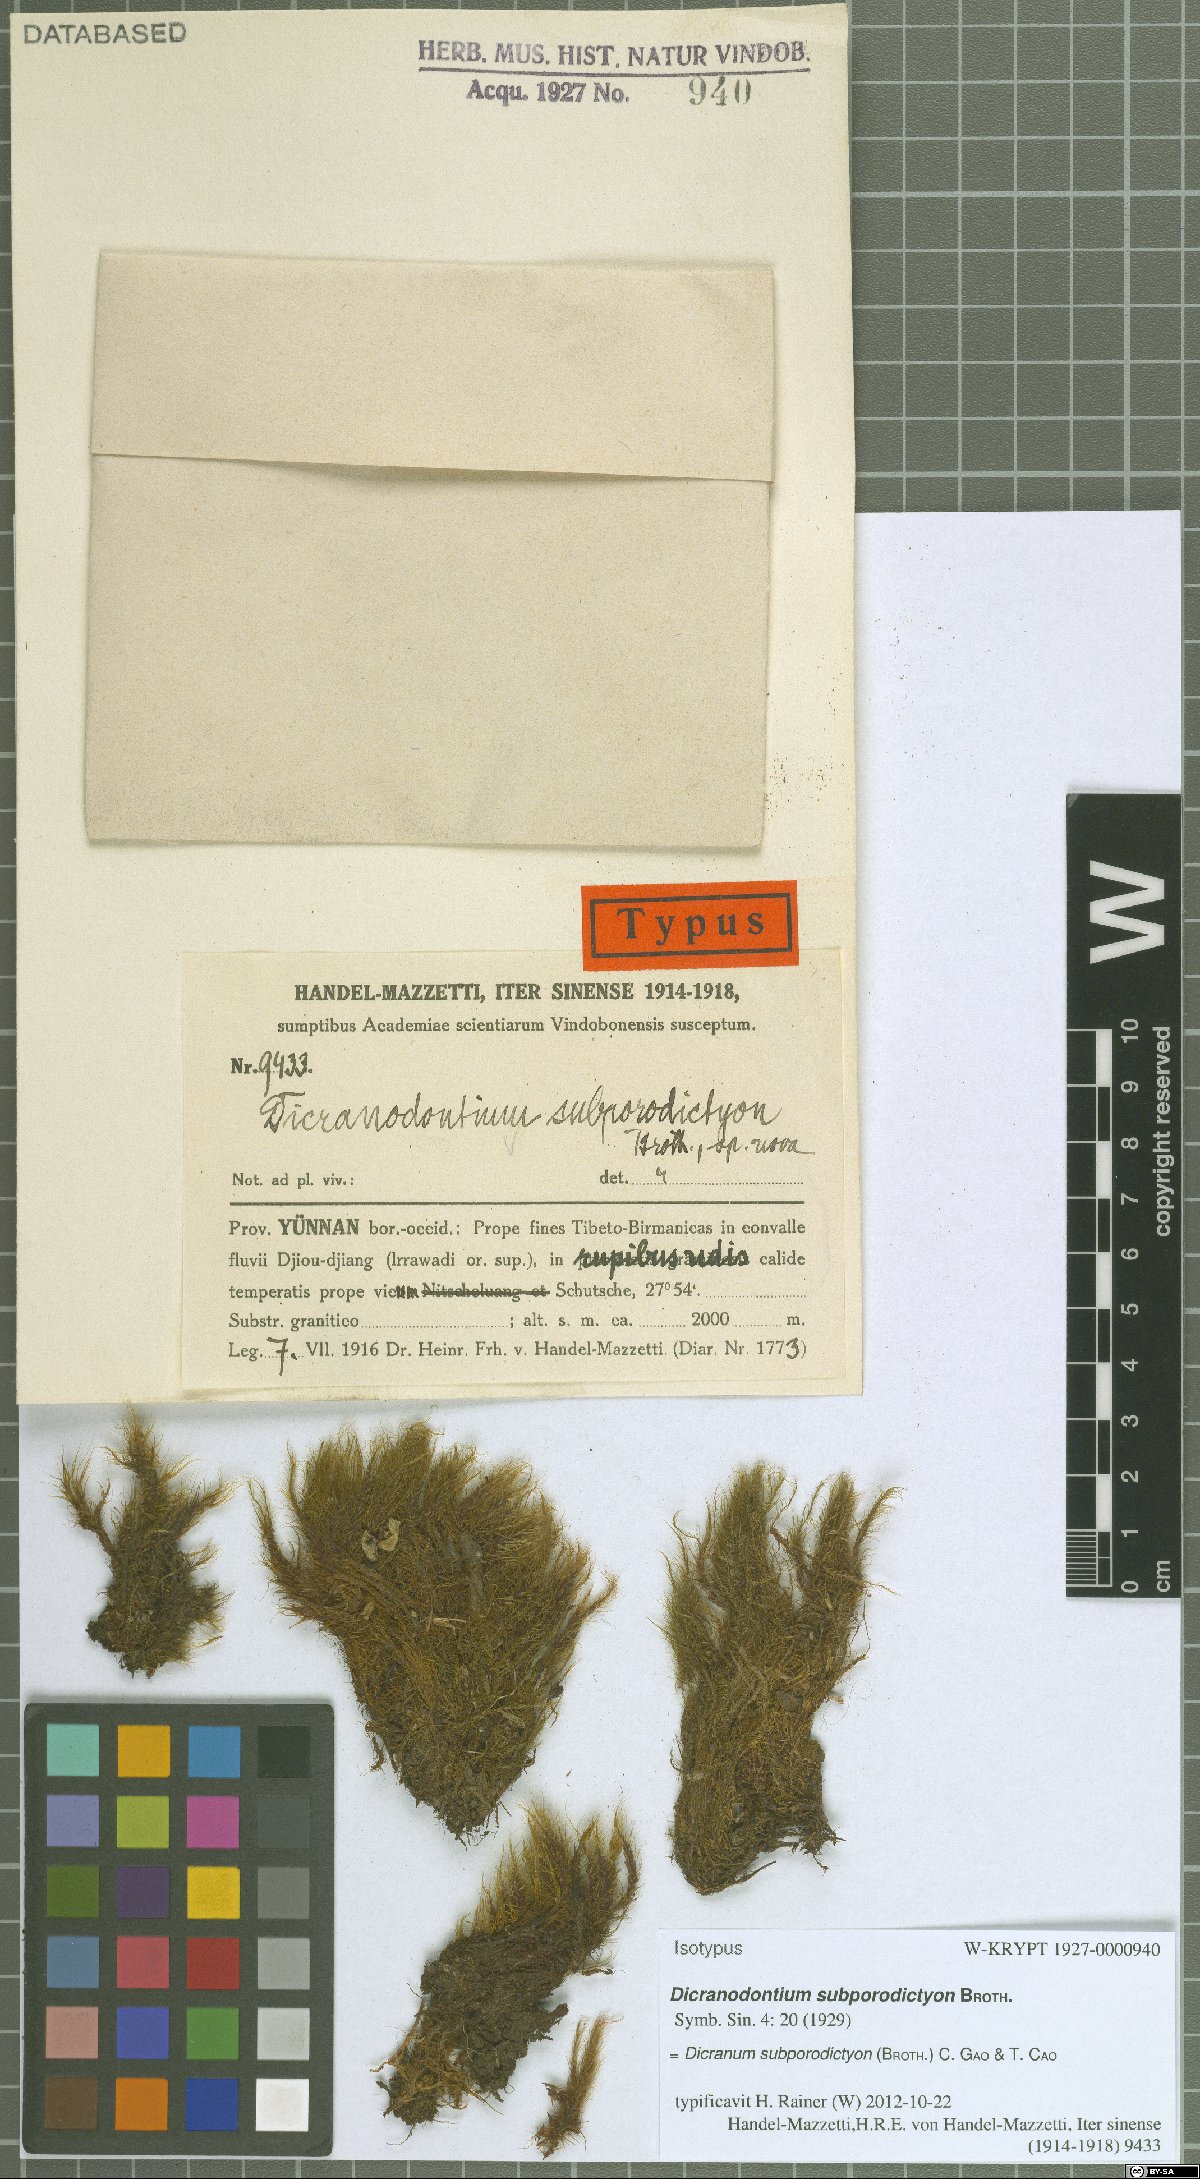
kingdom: Plantae
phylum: Bryophyta
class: Bryopsida
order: Dicranales
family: Leucobryaceae
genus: Atractylocarpus
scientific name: Atractylocarpus subporodictyon
